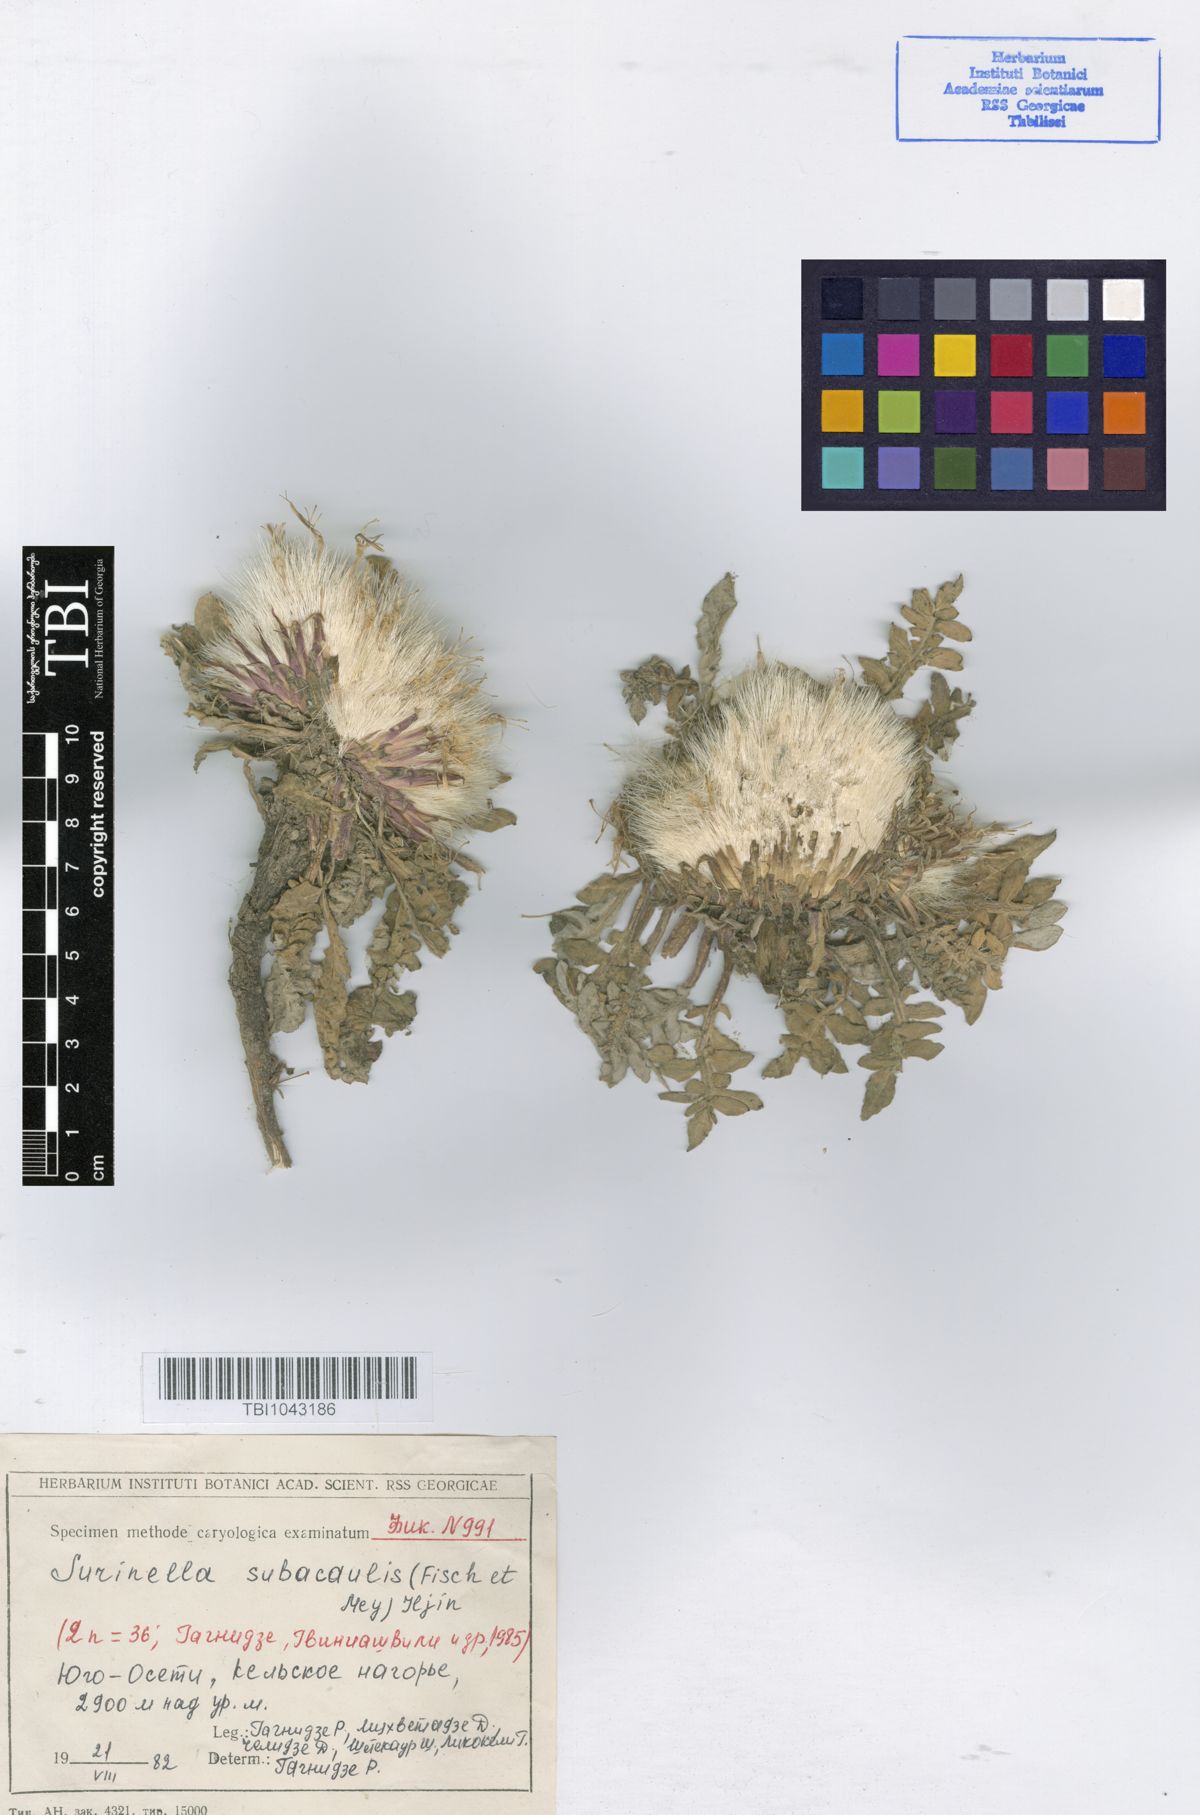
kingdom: Plantae
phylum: Tracheophyta
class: Magnoliopsida
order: Asterales
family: Asteraceae
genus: Jurinea
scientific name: Jurinea moschus
